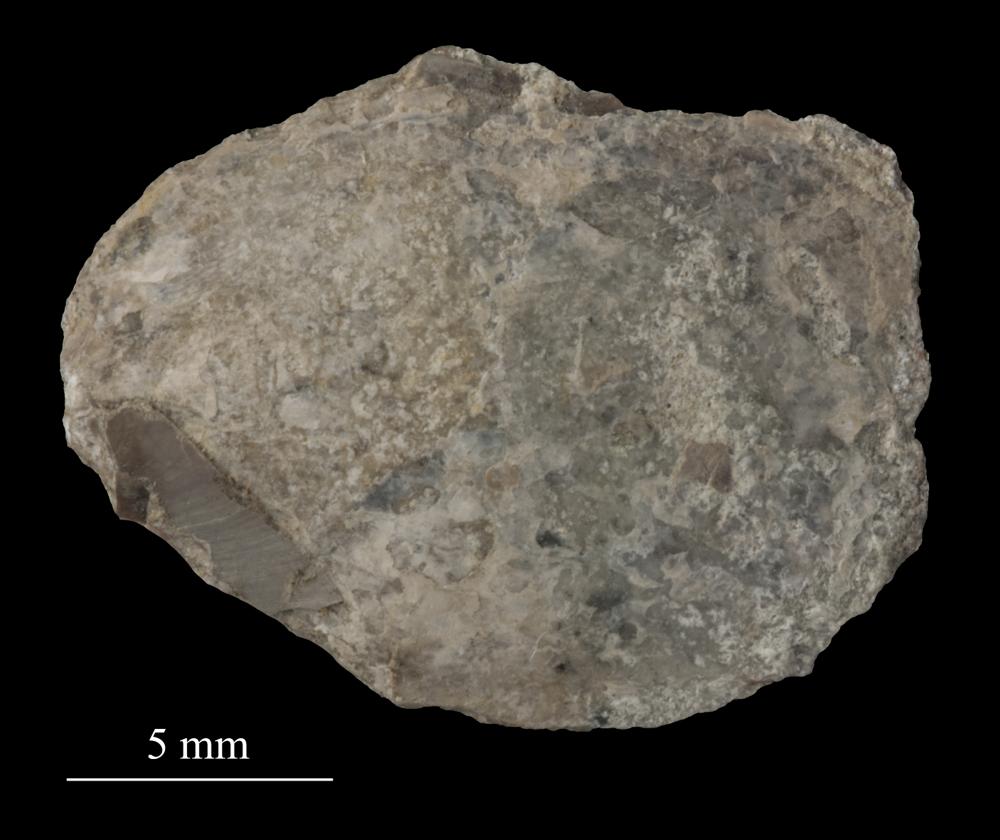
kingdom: Animalia
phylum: Brachiopoda
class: Lingulata
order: Lingulida
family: Pseudolingulidae
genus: Pseudolingula
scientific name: Pseudolingula
